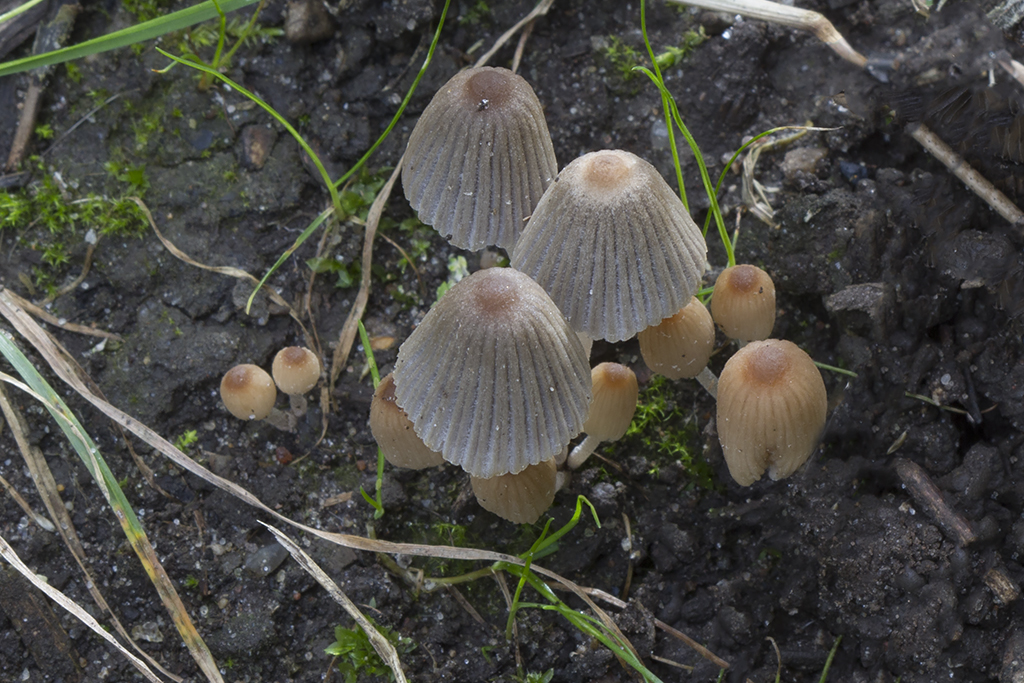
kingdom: Fungi
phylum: Basidiomycota
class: Agaricomycetes
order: Agaricales
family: Psathyrellaceae
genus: Tulosesus
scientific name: Tulosesus
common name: blækhat
